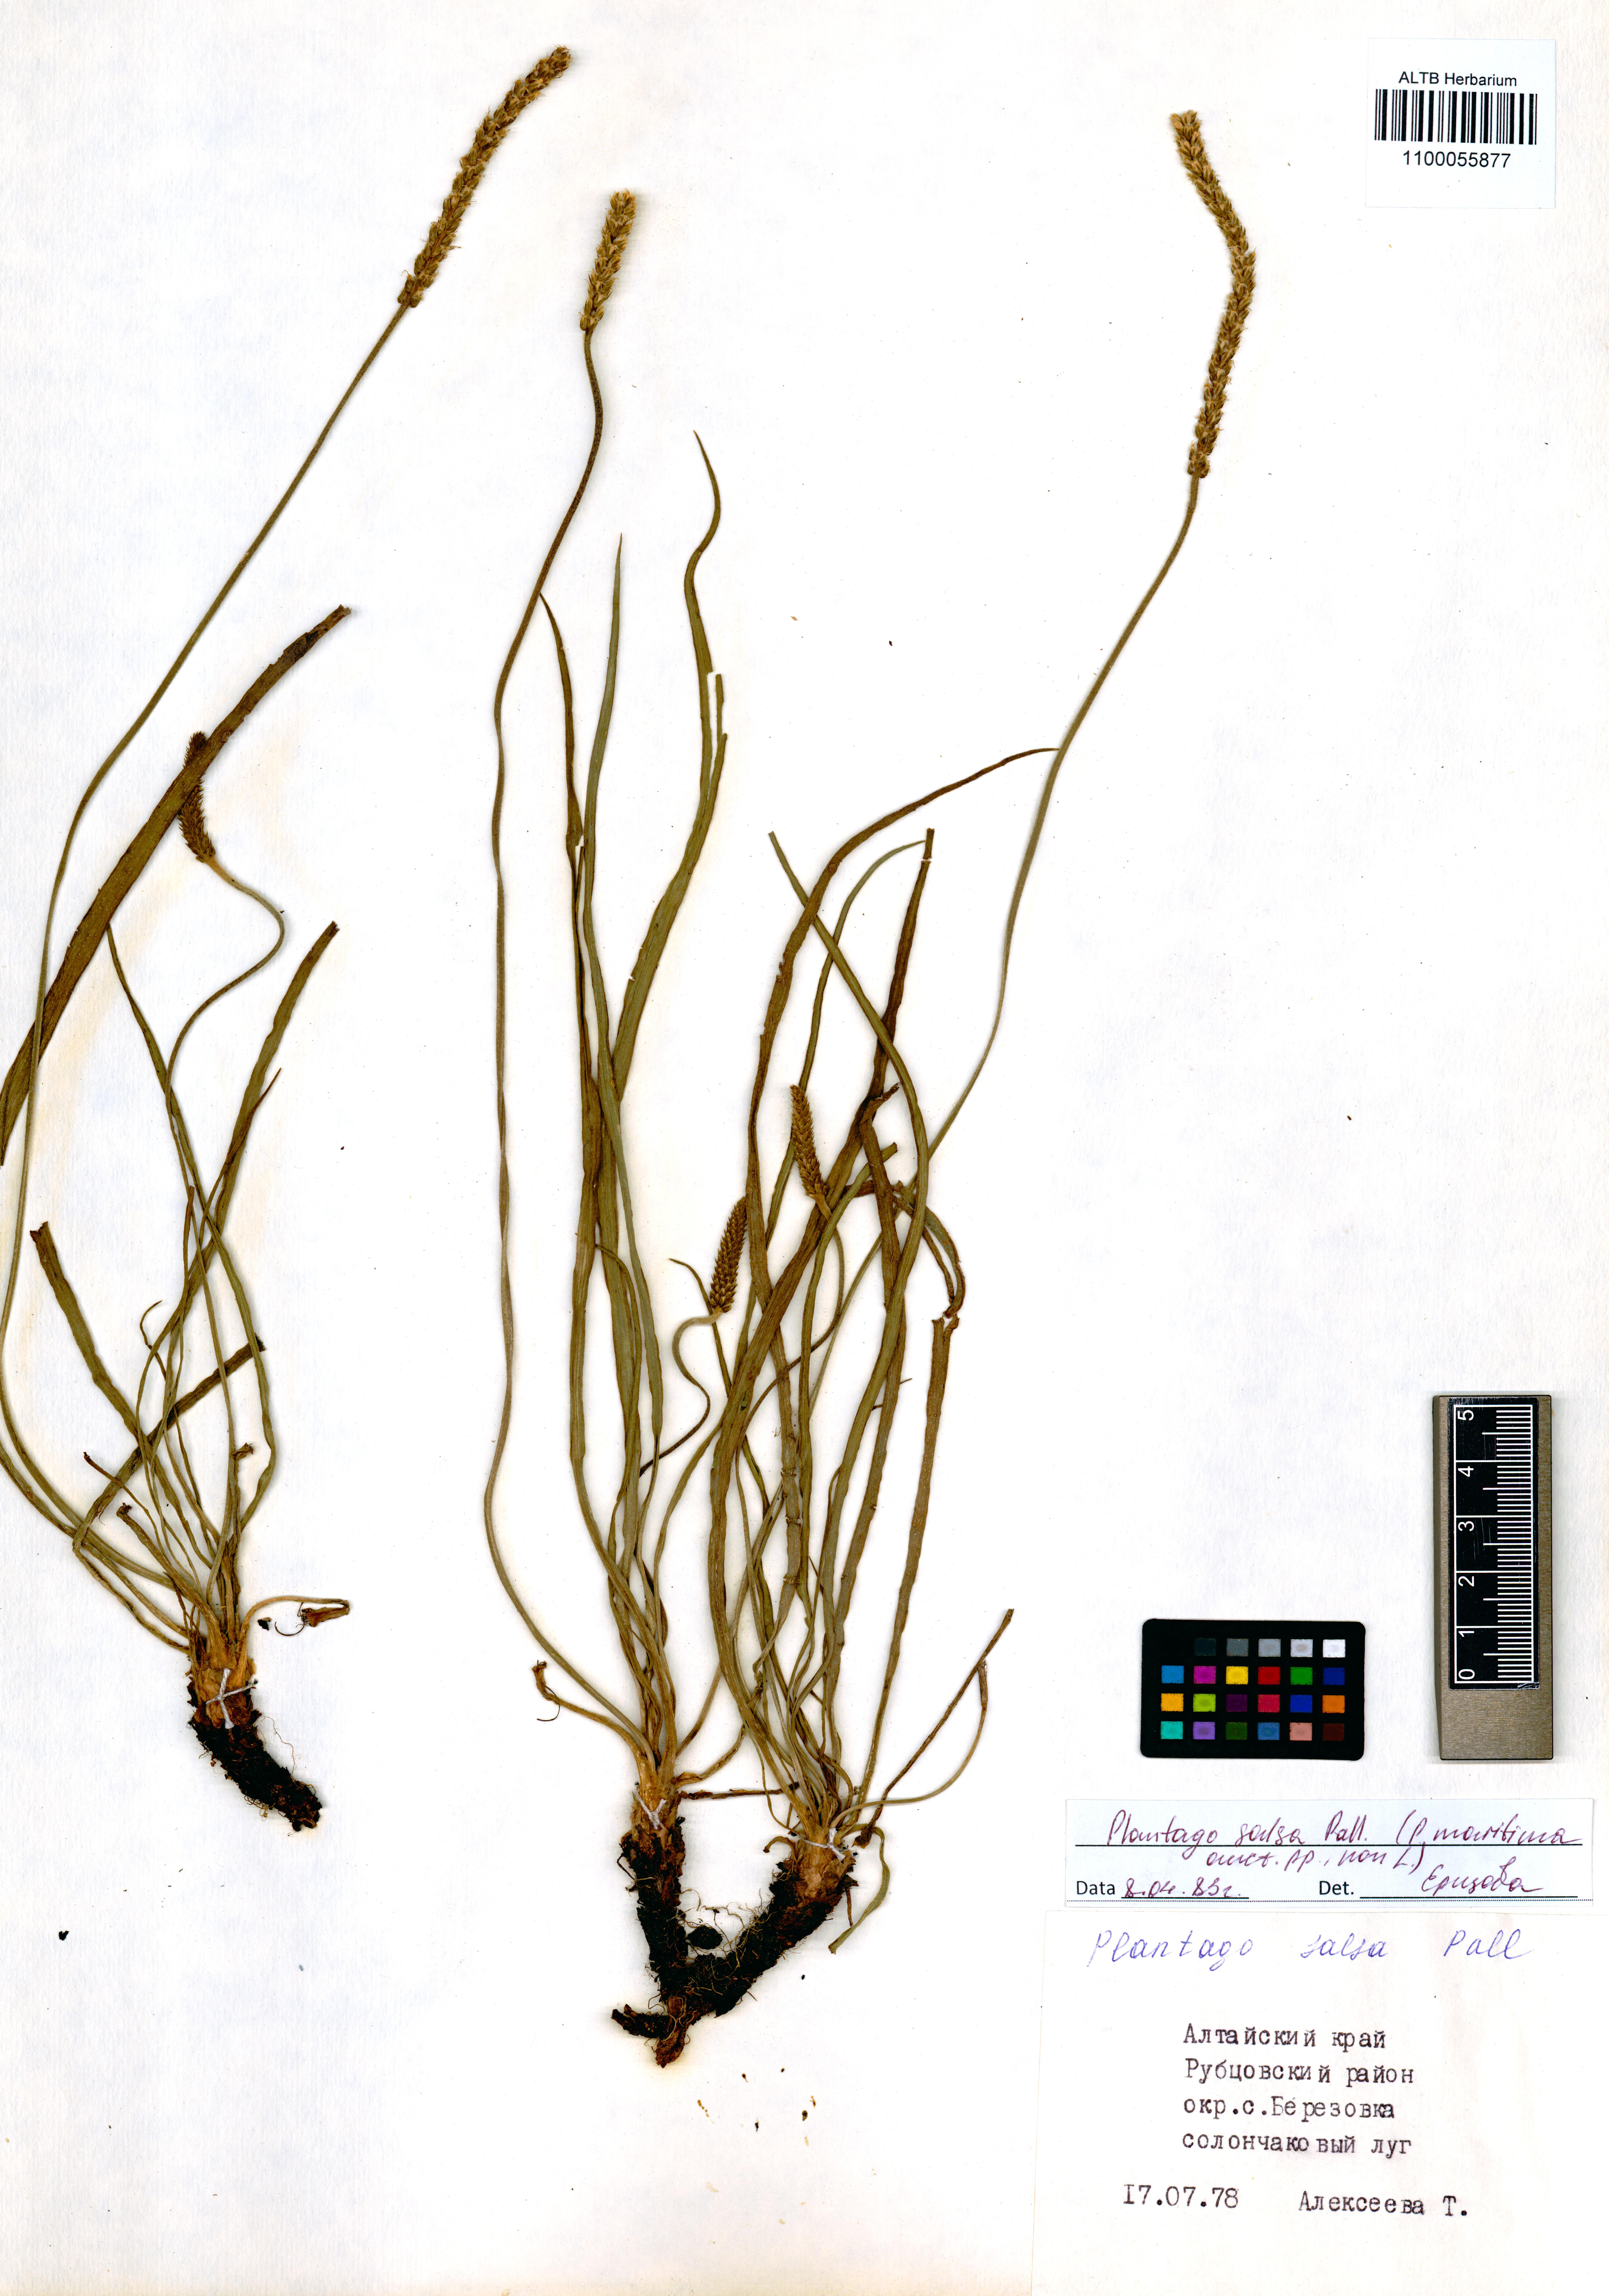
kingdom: Plantae
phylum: Tracheophyta
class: Magnoliopsida
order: Lamiales
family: Plantaginaceae
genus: Plantago
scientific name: Plantago salsa
